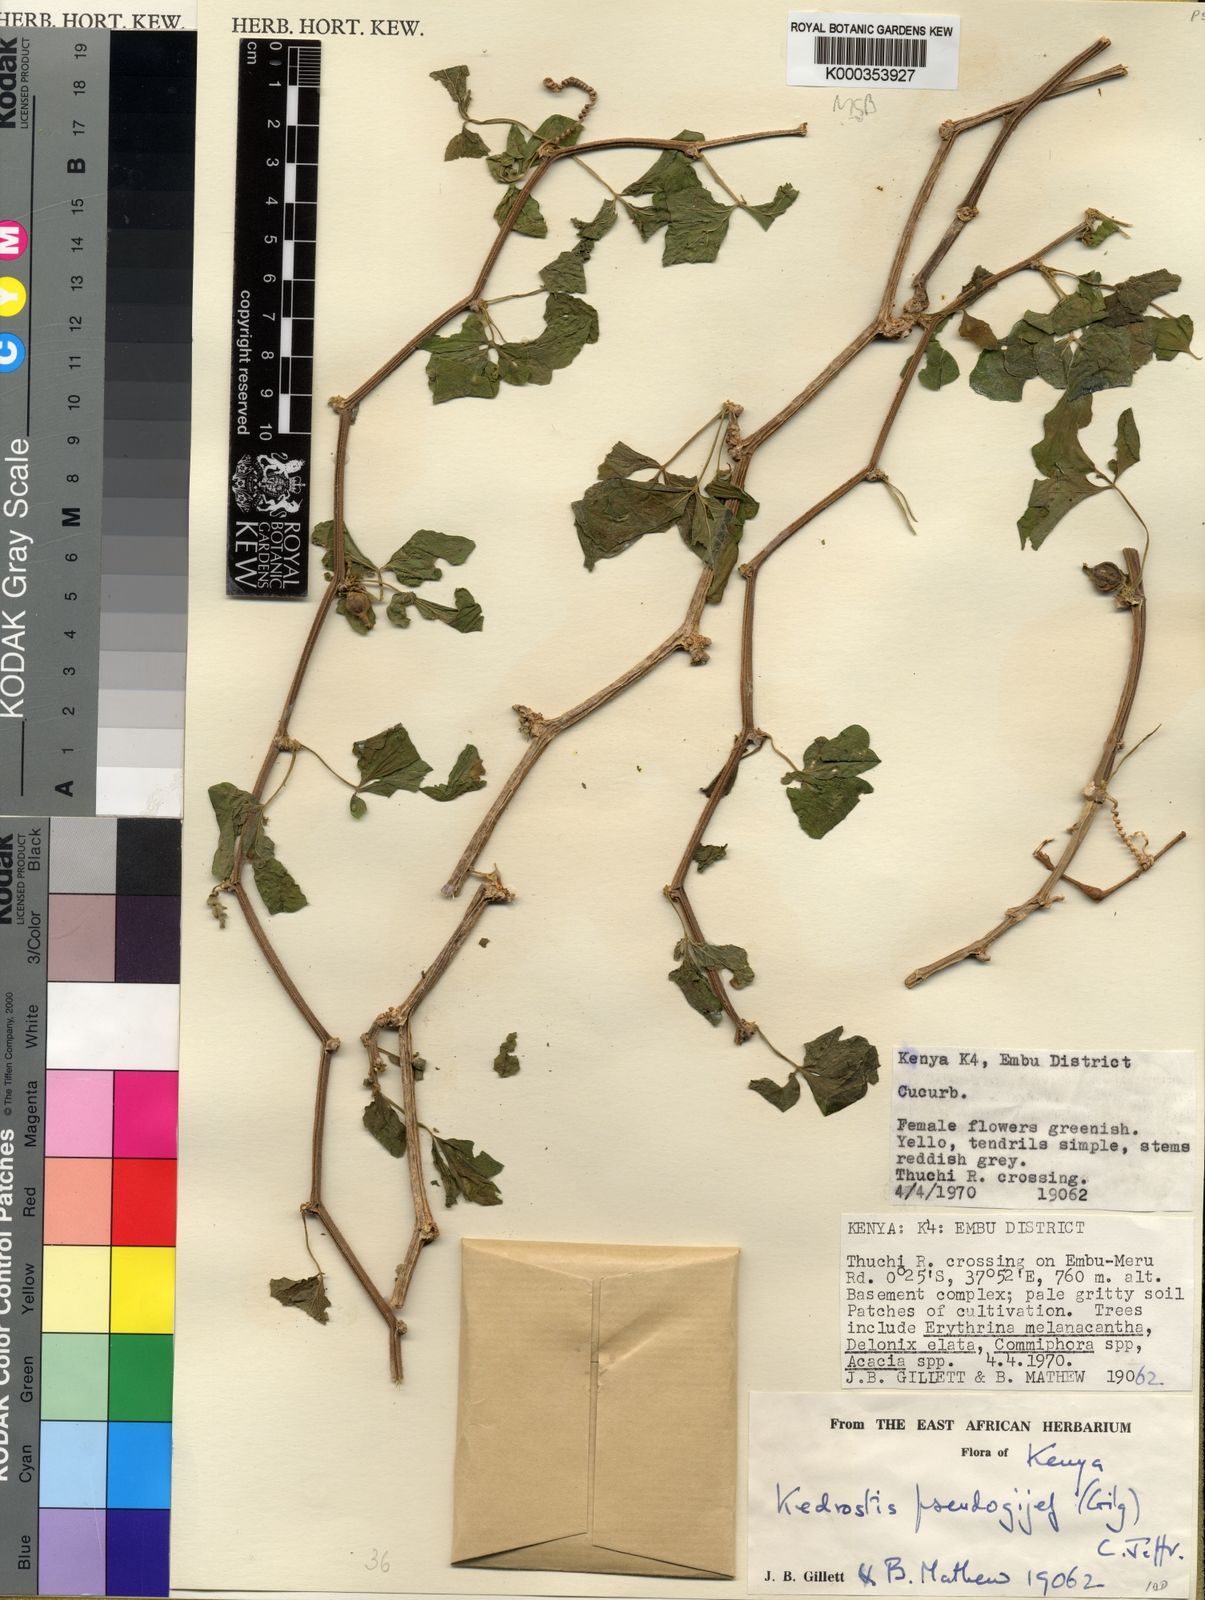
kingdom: Plantae
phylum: Tracheophyta
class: Magnoliopsida
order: Cucurbitales
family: Cucurbitaceae
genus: Kedrostis
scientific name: Kedrostis pseudogijef
